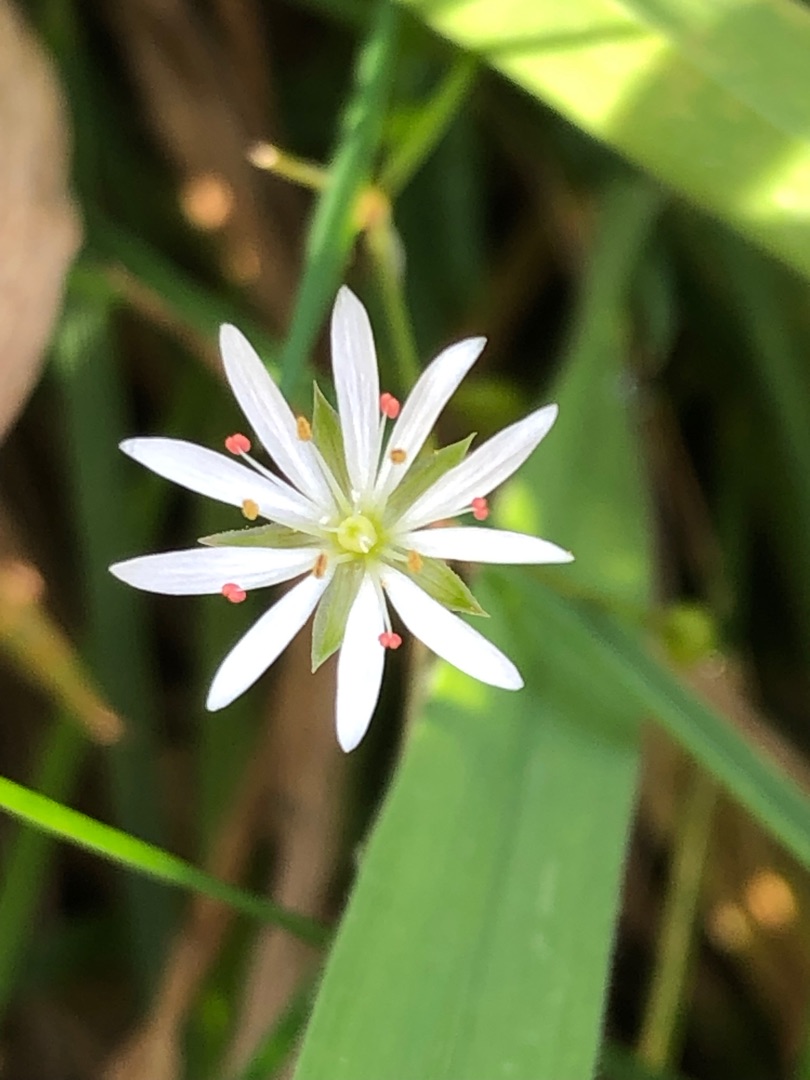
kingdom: Plantae
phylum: Tracheophyta
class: Magnoliopsida
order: Caryophyllales
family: Caryophyllaceae
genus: Stellaria
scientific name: Stellaria graminea
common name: Græsbladet fladstjerne
